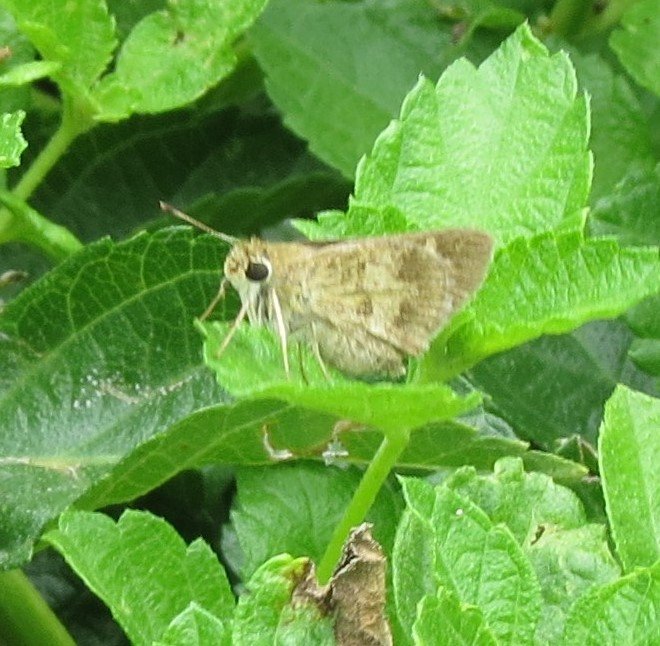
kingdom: Animalia
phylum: Arthropoda
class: Insecta
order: Lepidoptera
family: Hesperiidae
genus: Polites
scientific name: Polites vibex
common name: Whirlabout
